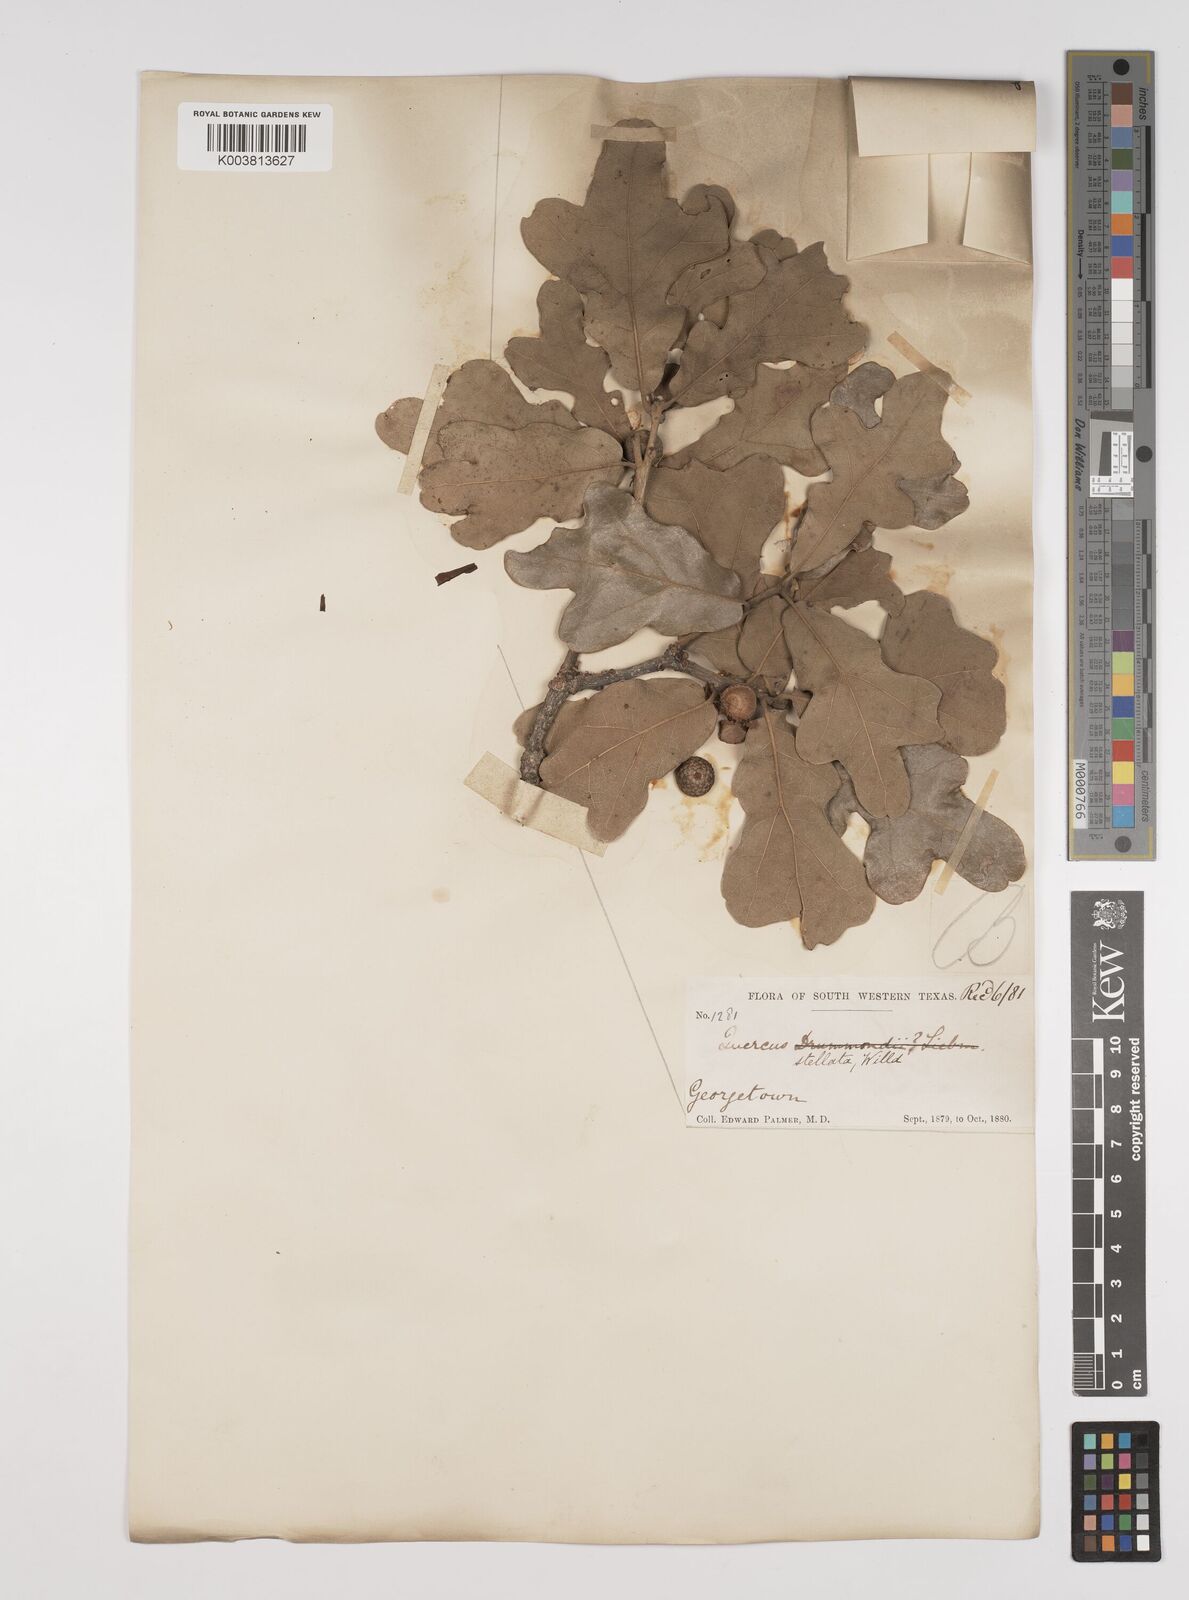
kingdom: Plantae
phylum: Tracheophyta
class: Magnoliopsida
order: Fagales
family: Fagaceae
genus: Quercus
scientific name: Quercus stellata
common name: Post oak
